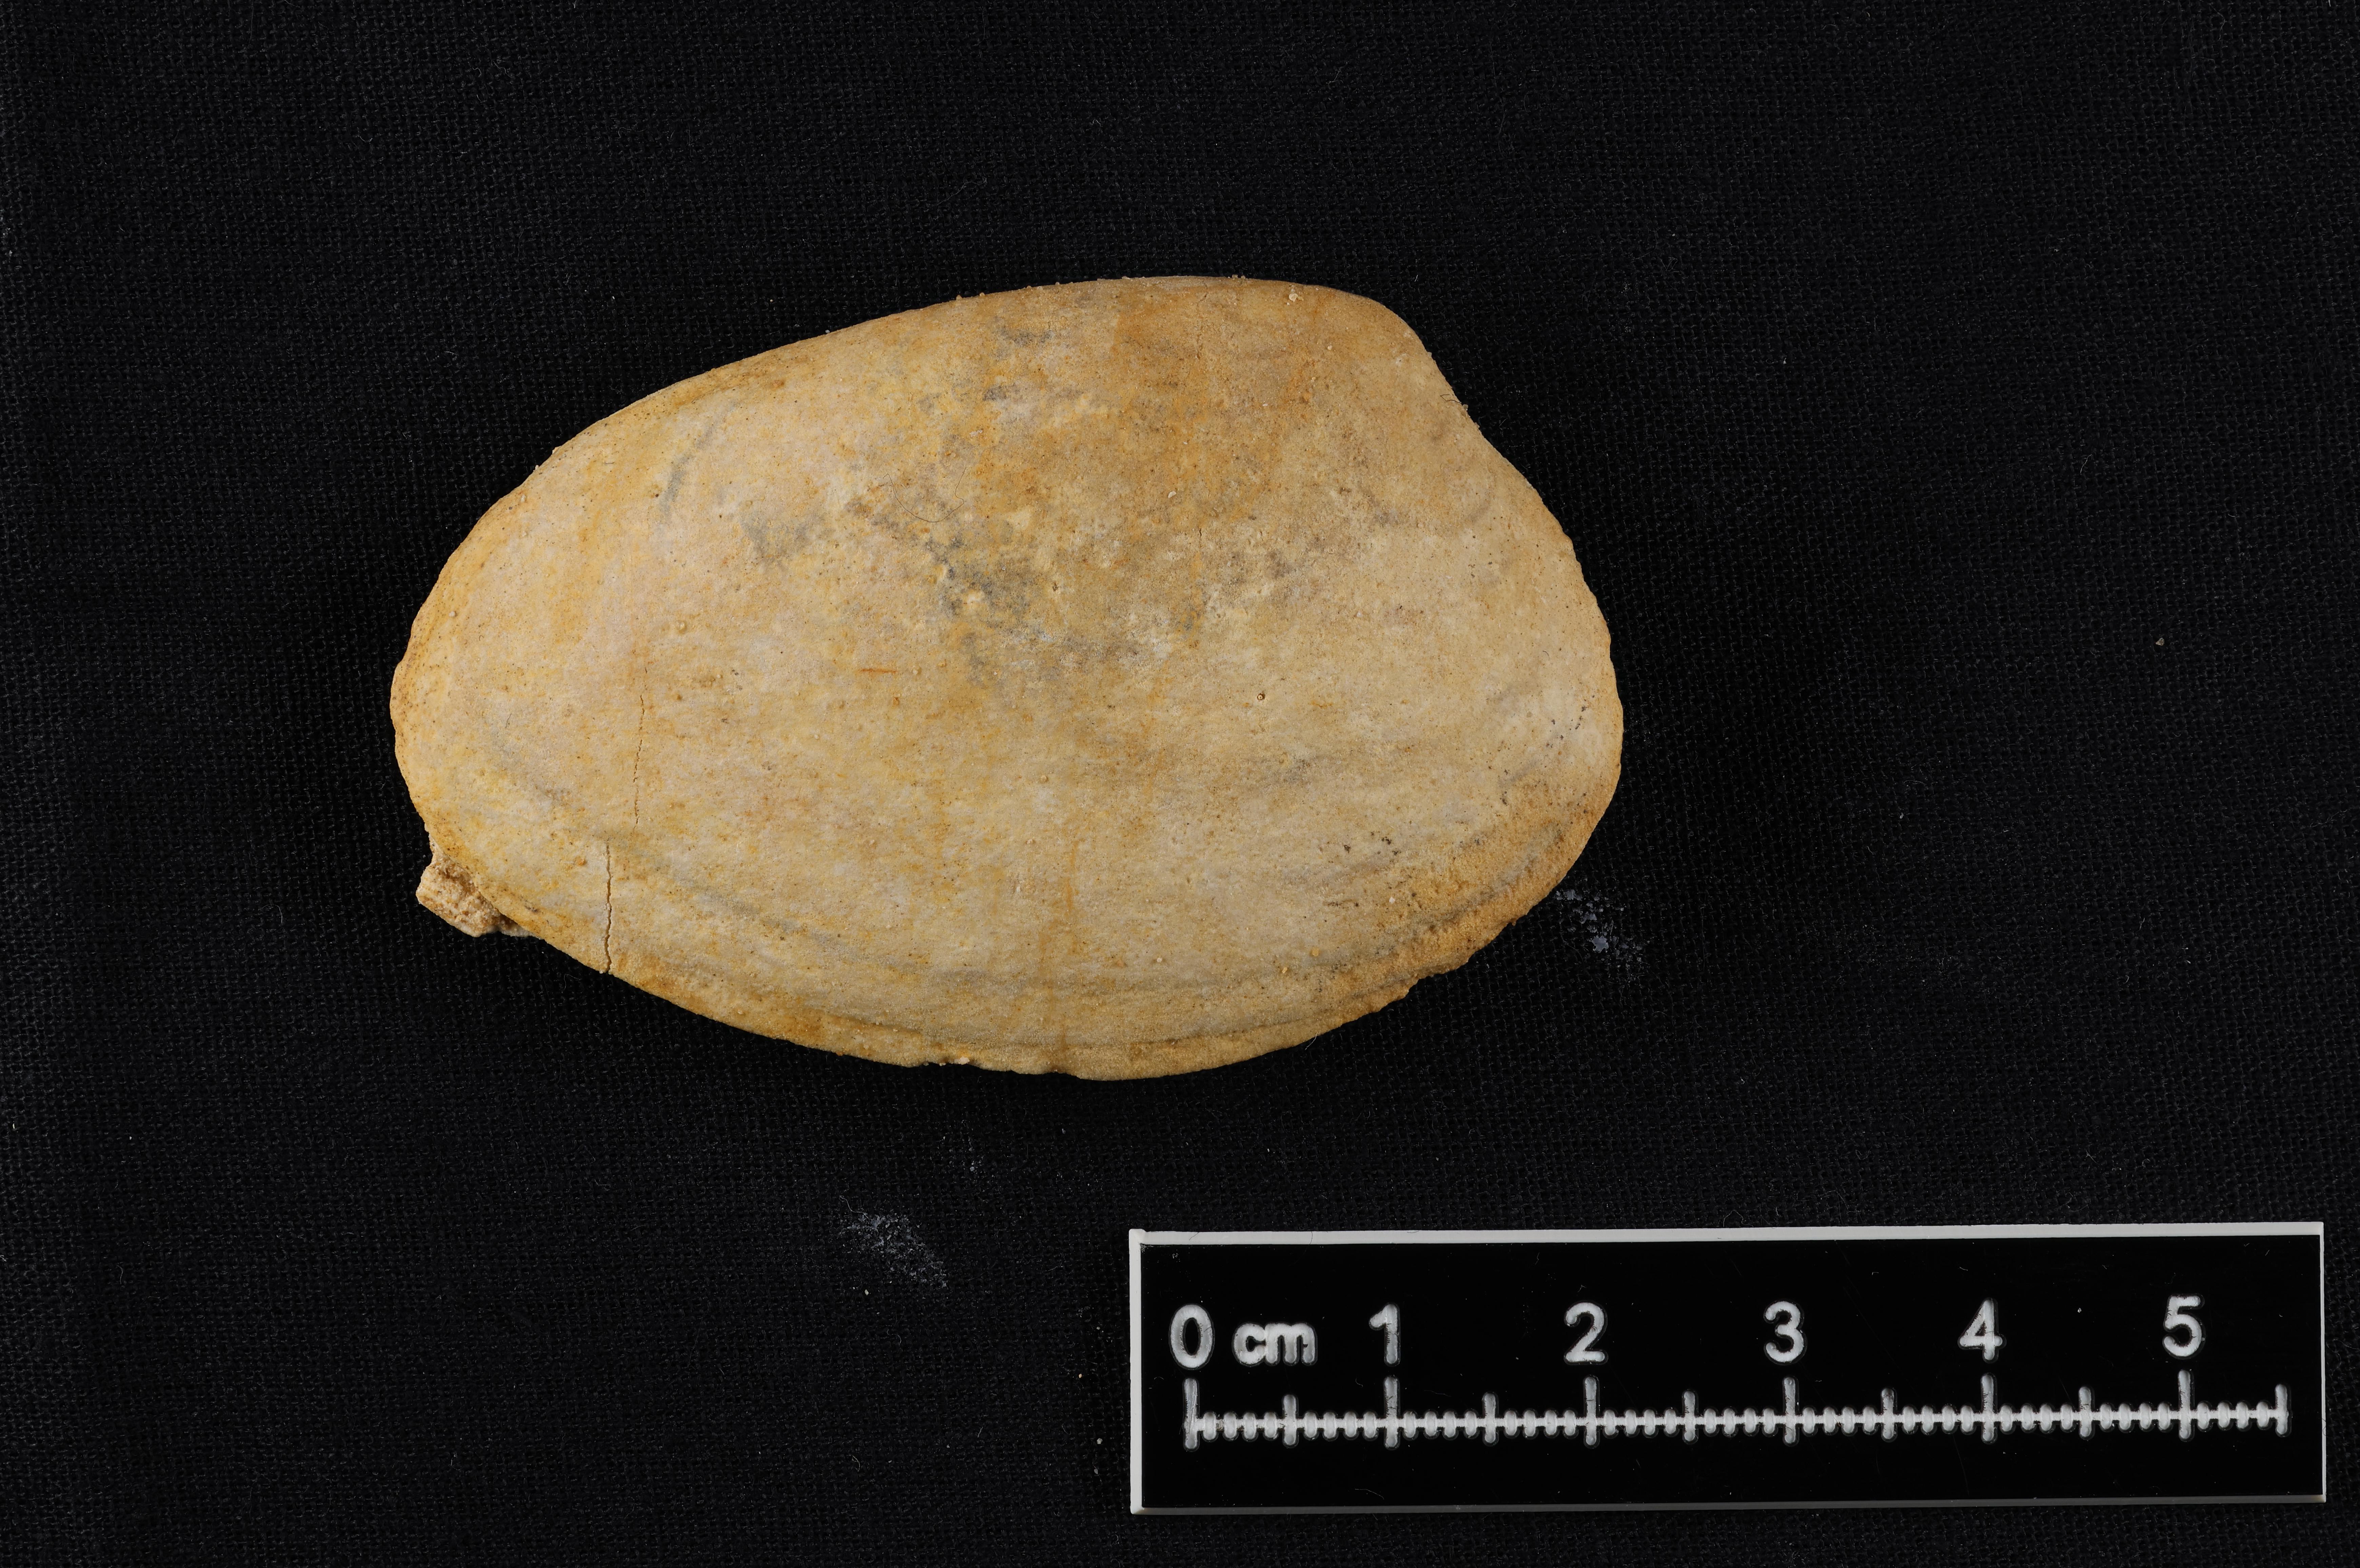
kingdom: Animalia
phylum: Mollusca
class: Bivalvia
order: Carditida
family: Cardiniidae
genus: Cardinia
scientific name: Cardinia
